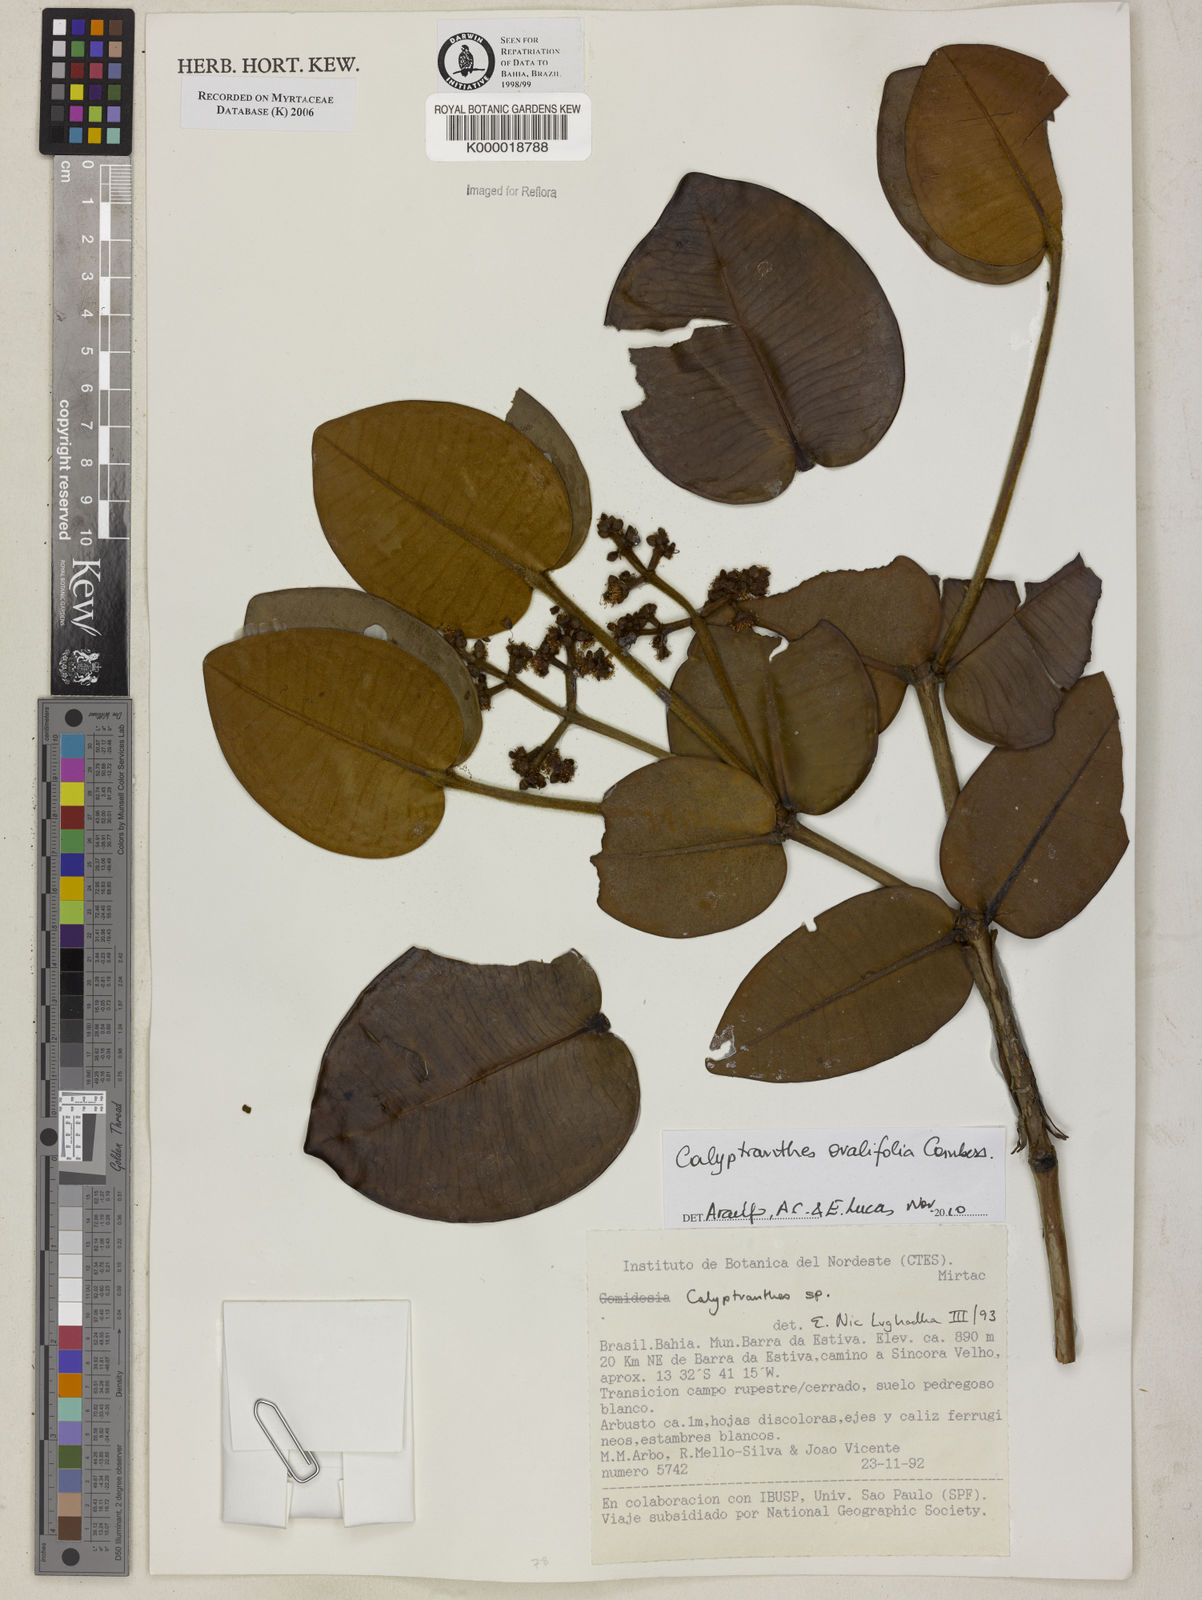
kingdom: Plantae
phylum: Tracheophyta
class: Magnoliopsida
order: Myrtales
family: Myrtaceae
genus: Calyptranthes
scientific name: Calyptranthes
